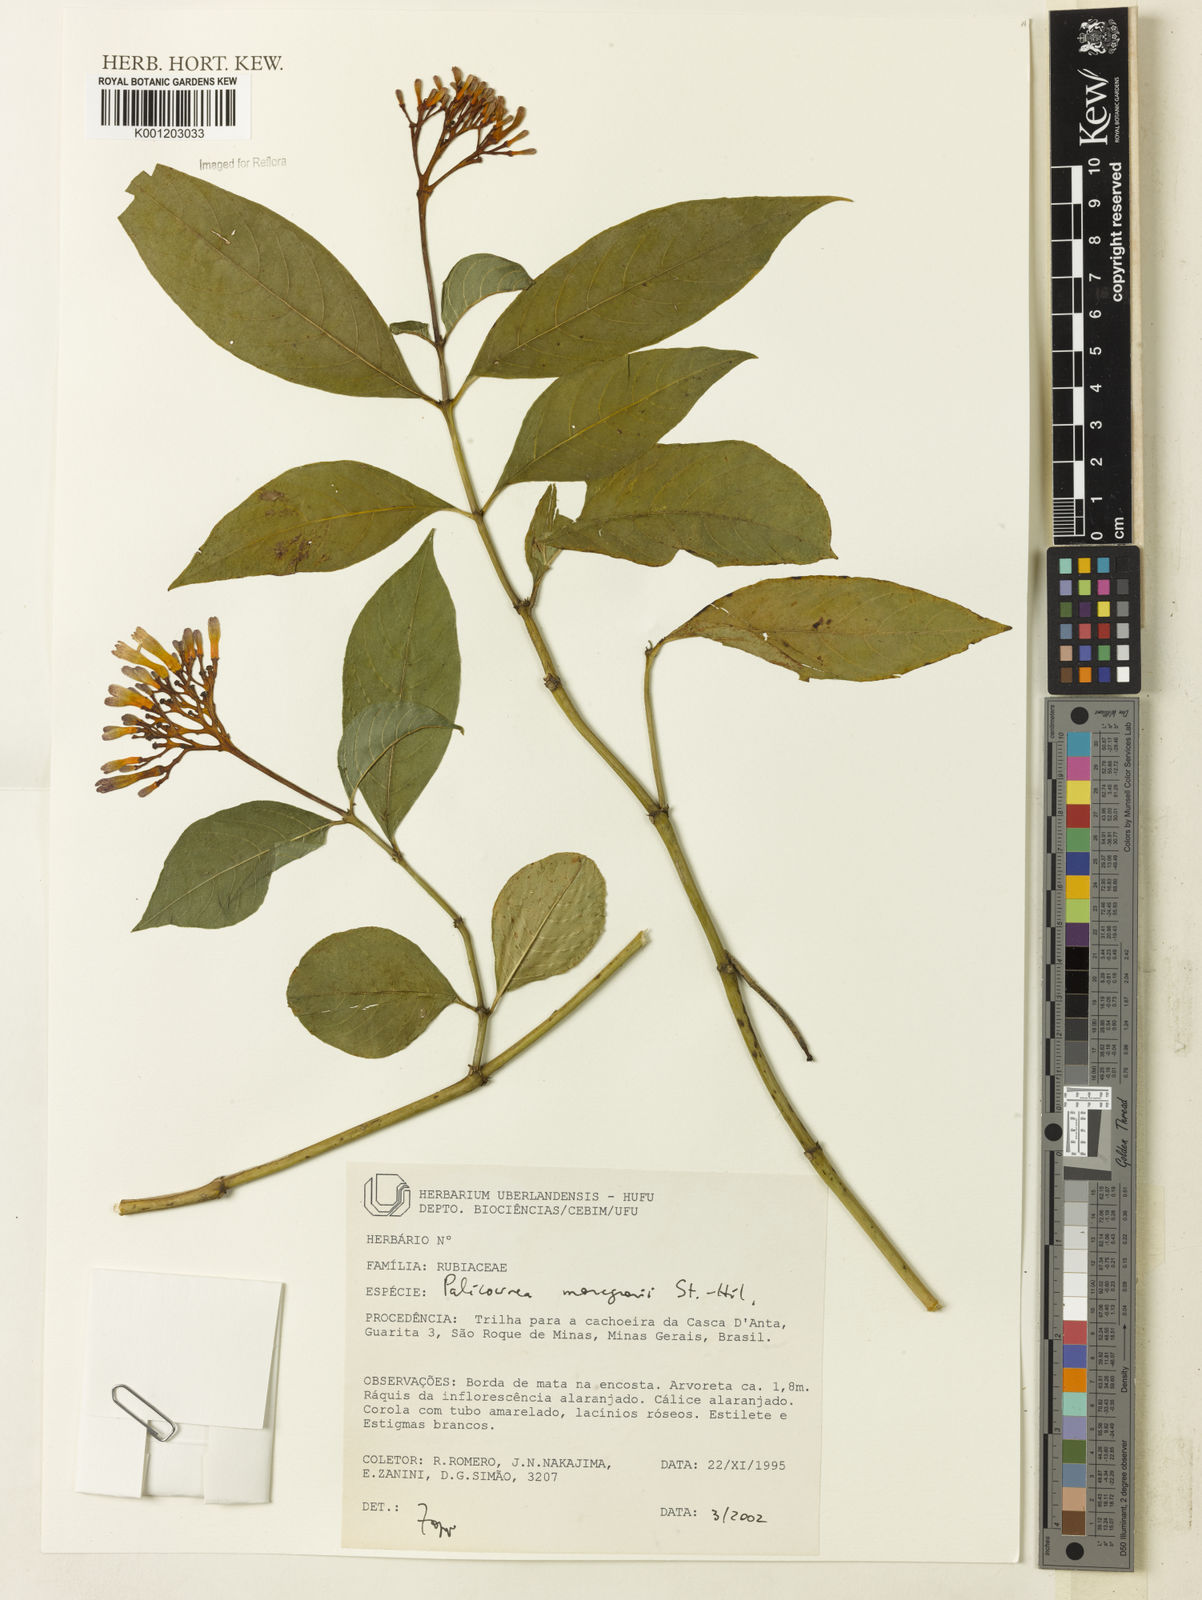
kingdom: Plantae
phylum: Tracheophyta
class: Magnoliopsida
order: Gentianales
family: Rubiaceae
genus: Palicourea
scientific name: Palicourea marcgravii
